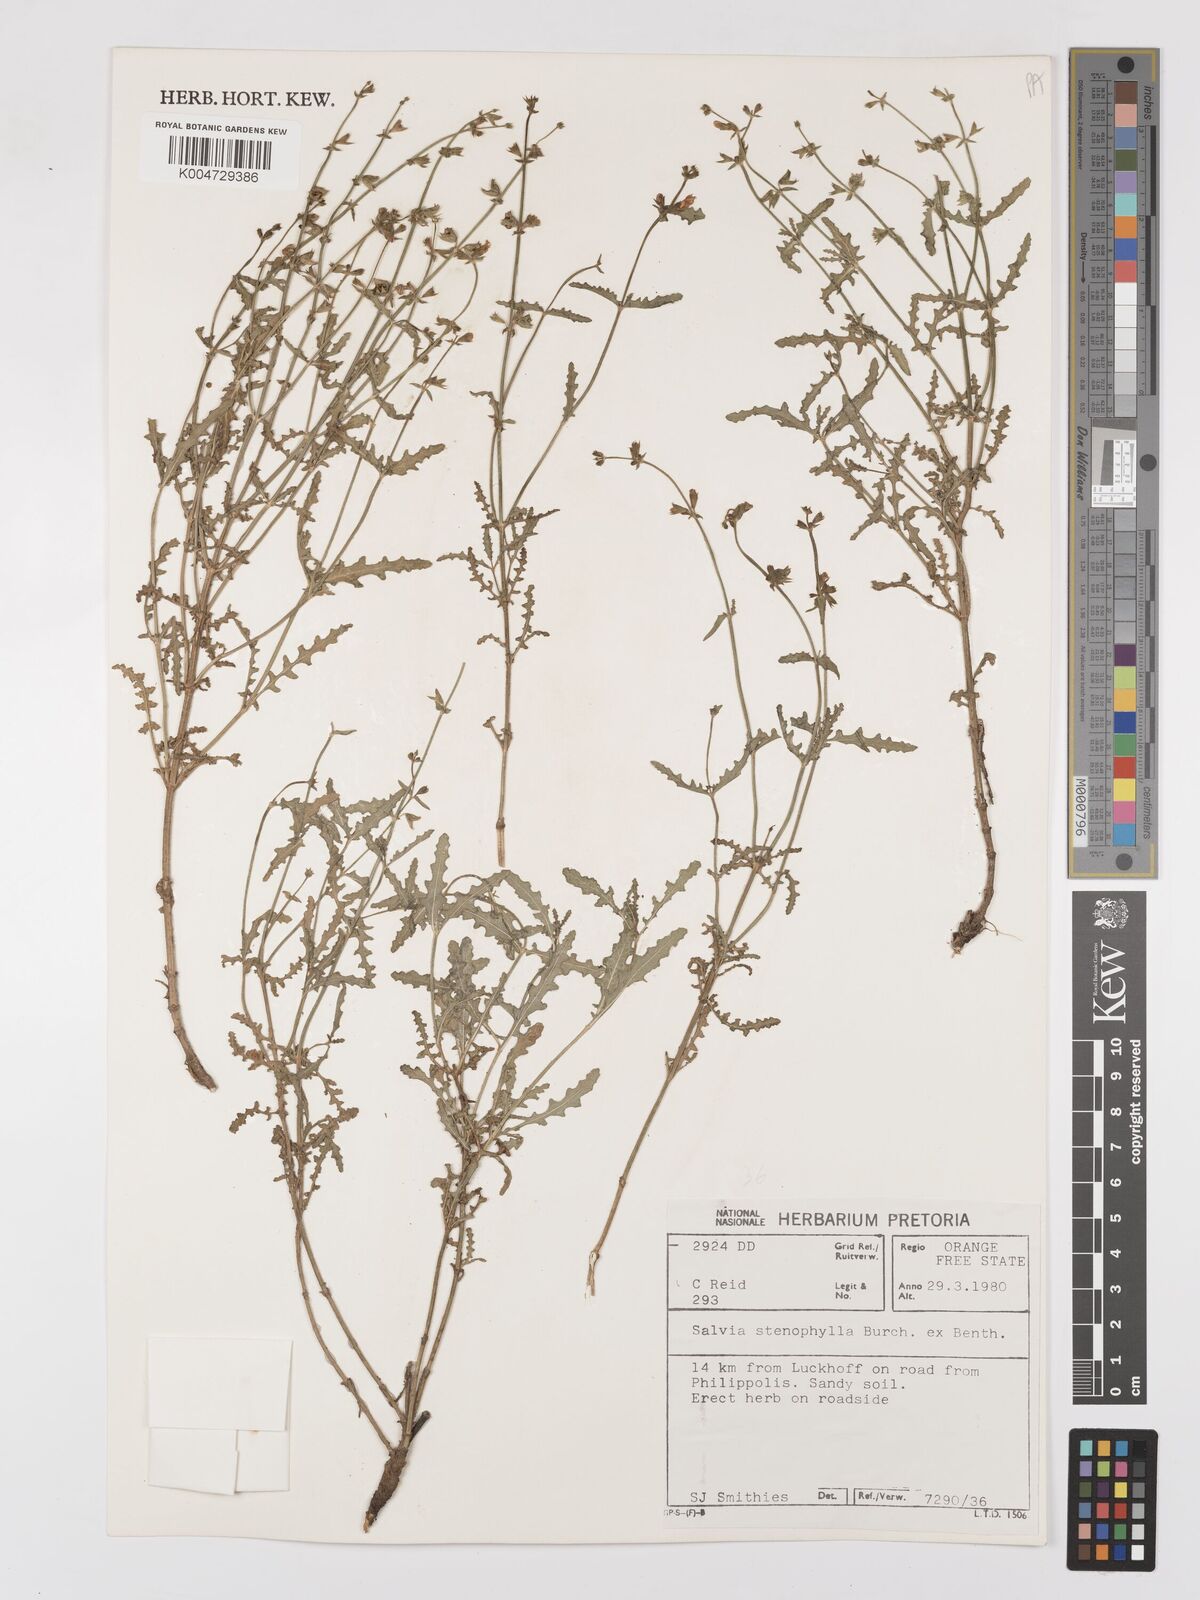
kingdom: Plantae
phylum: Tracheophyta
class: Magnoliopsida
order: Lamiales
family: Lamiaceae
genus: Salvia
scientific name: Salvia stenophylla
